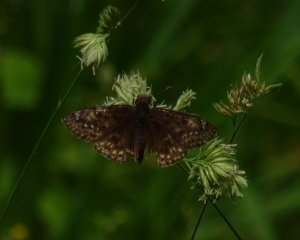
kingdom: Animalia
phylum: Arthropoda
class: Insecta
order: Lepidoptera
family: Hesperiidae
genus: Gesta
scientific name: Gesta
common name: Juvenal's Duskywing
